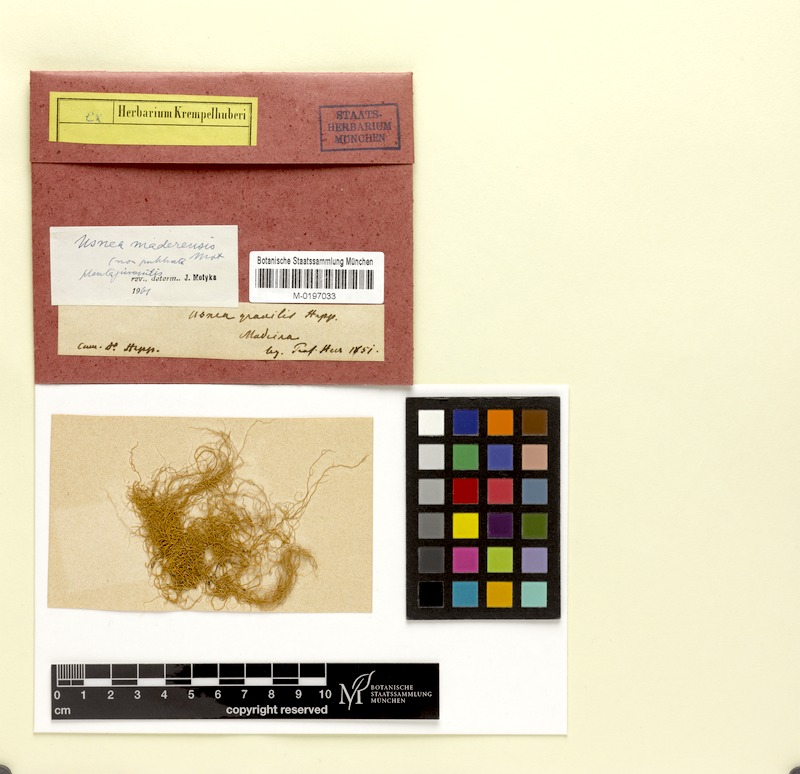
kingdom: Fungi
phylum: Ascomycota
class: Lecanoromycetes
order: Lecanorales
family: Parmeliaceae
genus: Usnea
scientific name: Usnea silesiaca
